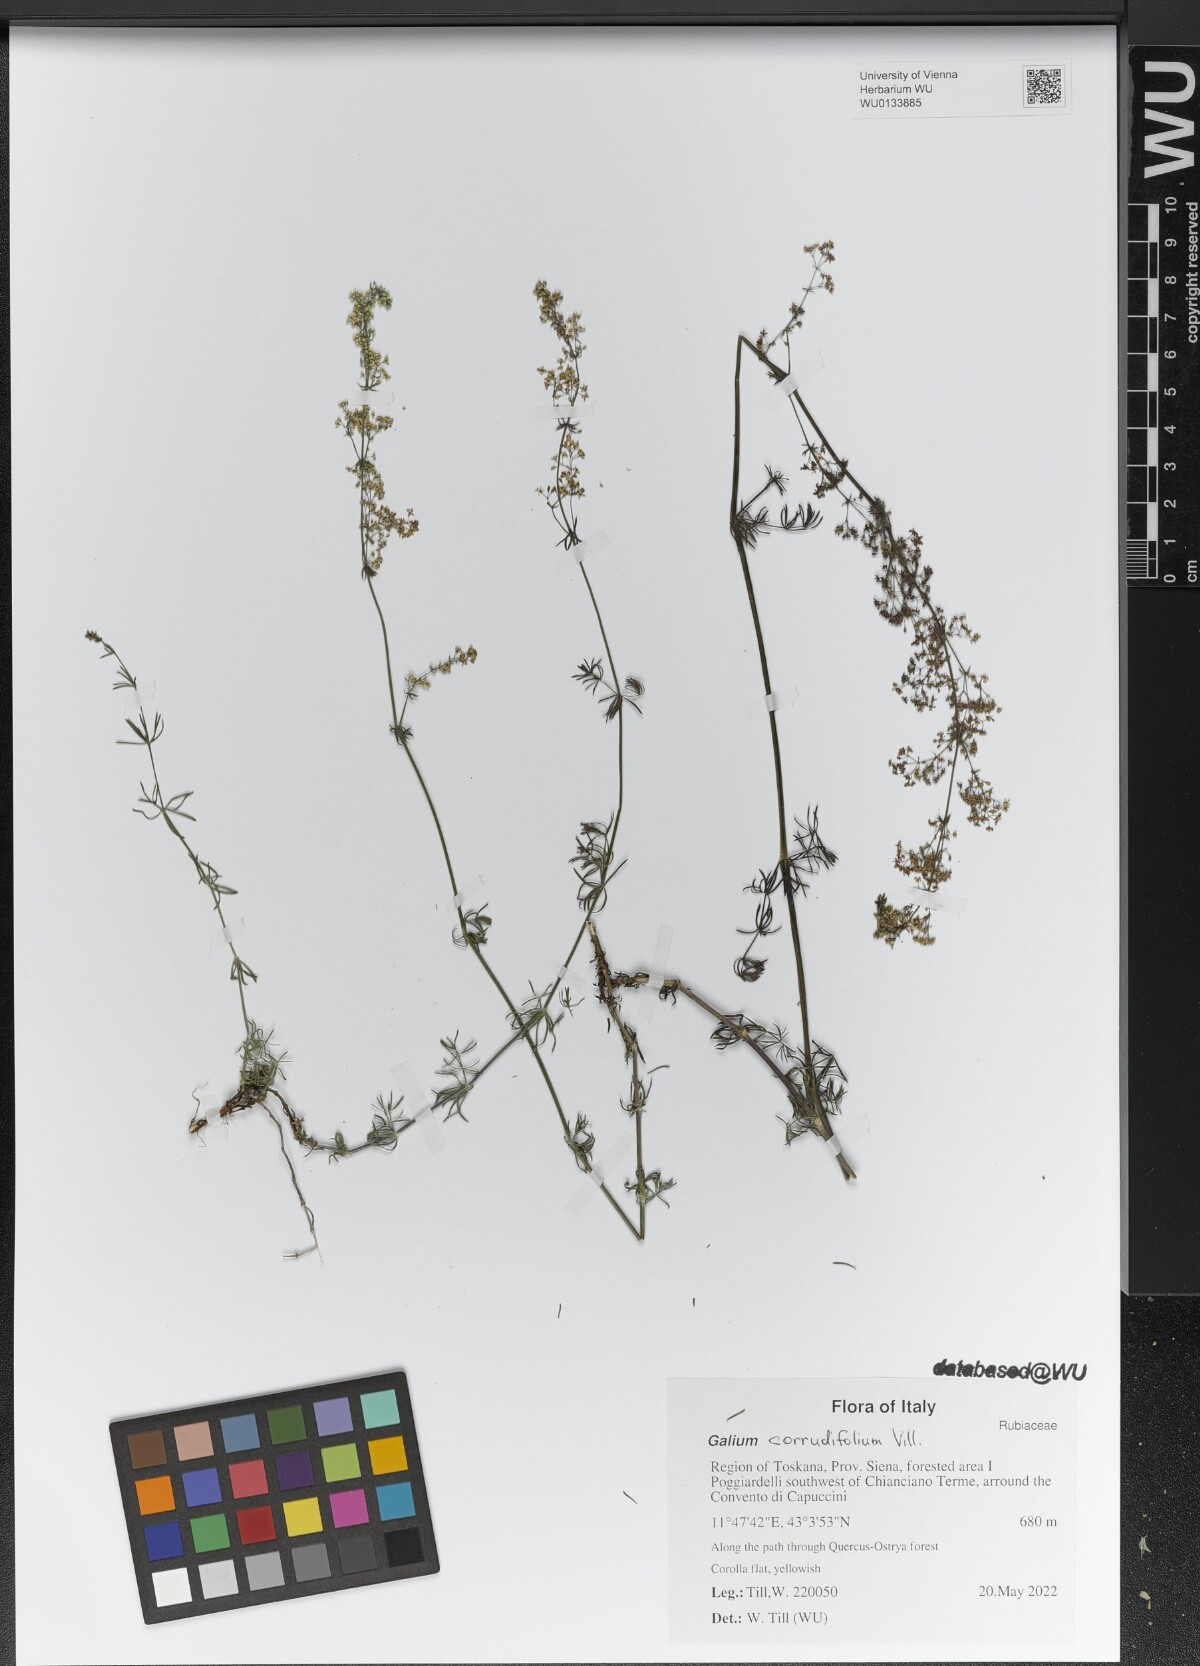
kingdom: Plantae
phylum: Tracheophyta
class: Magnoliopsida
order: Gentianales
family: Rubiaceae
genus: Galium
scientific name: Galium lucidum
